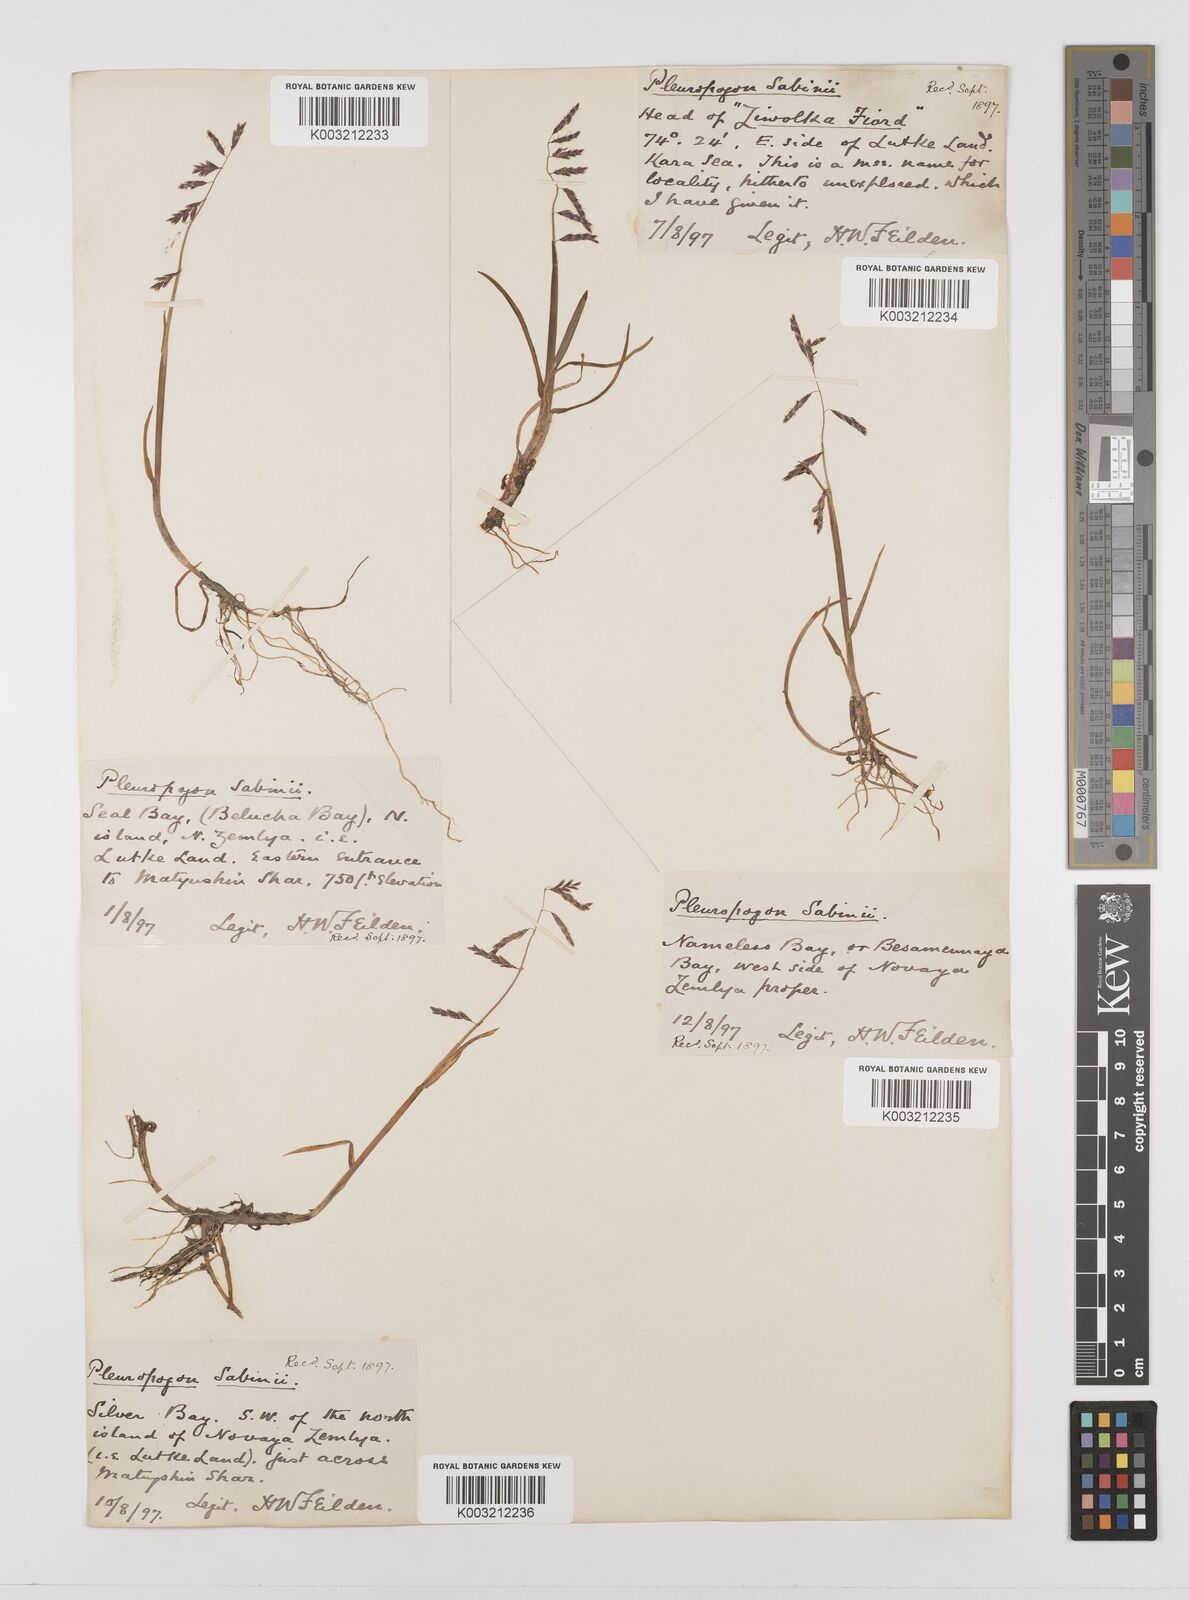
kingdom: Plantae
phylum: Tracheophyta
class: Liliopsida
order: Poales
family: Poaceae
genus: Pleuropogon
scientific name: Pleuropogon sabinei
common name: Sabine's false semaphoregrass
